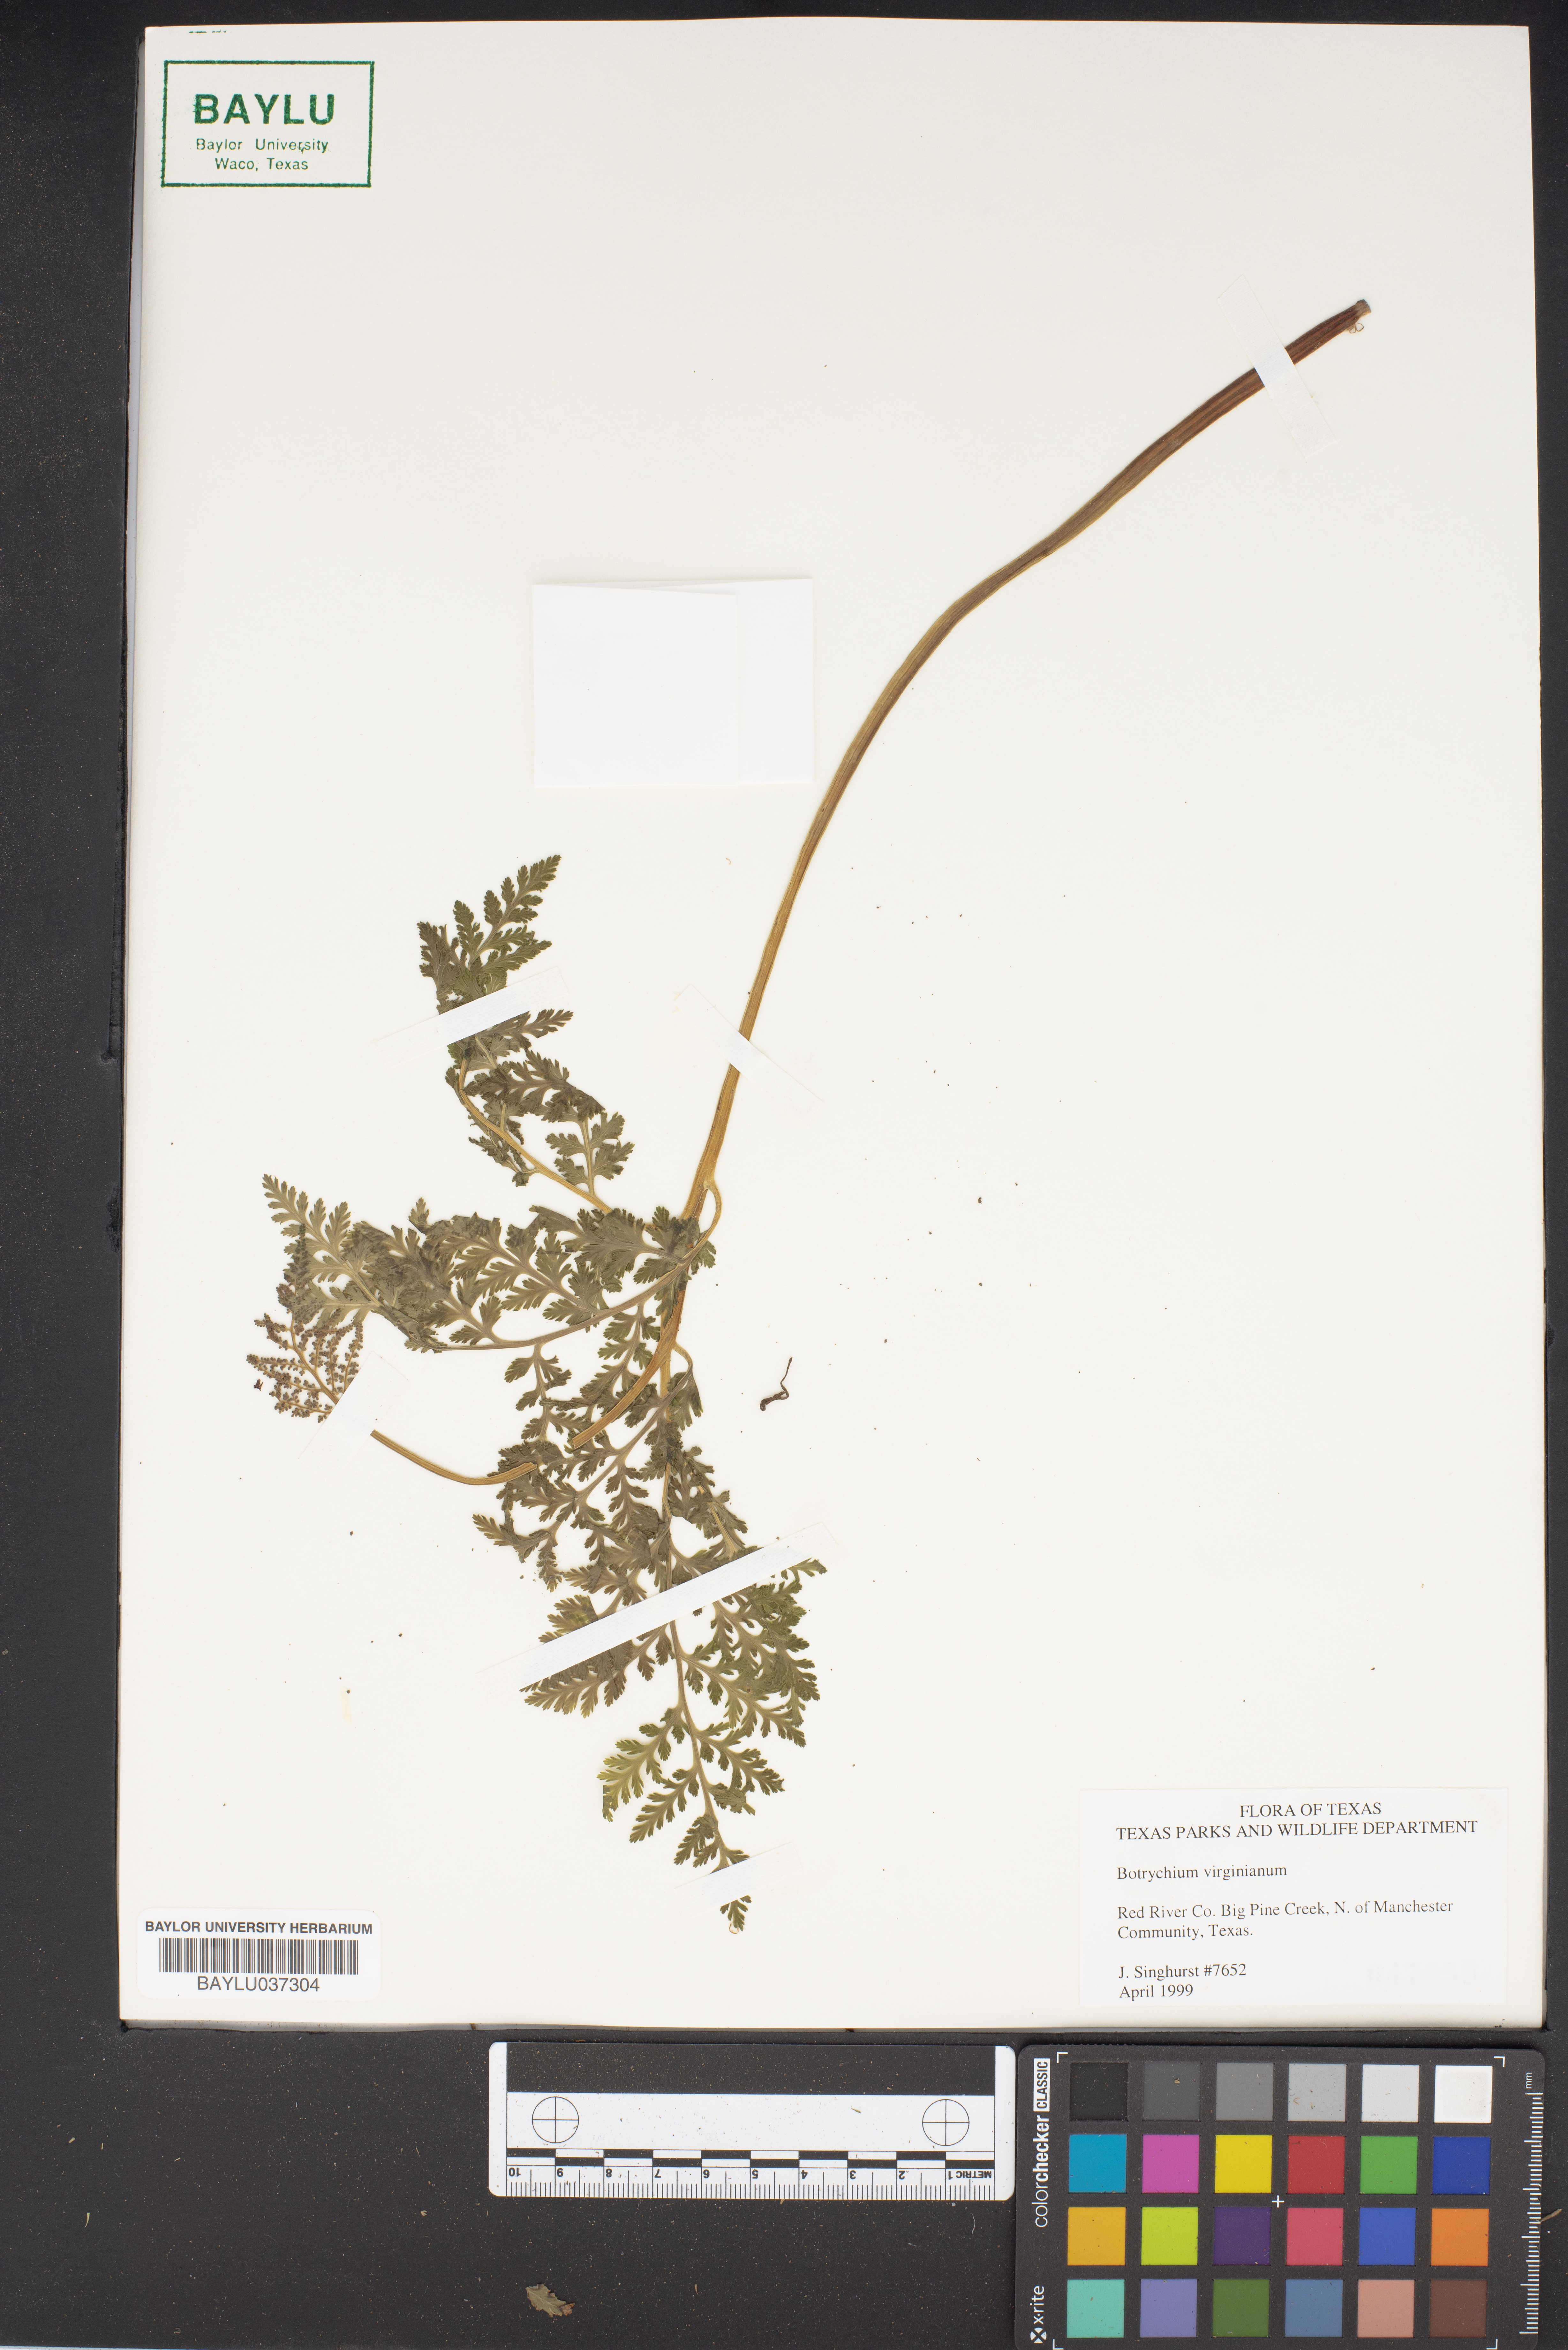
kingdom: Plantae
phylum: Tracheophyta
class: Polypodiopsida
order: Ophioglossales
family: Ophioglossaceae
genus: Botrypus
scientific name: Botrypus virginianus
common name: Common grapefern
